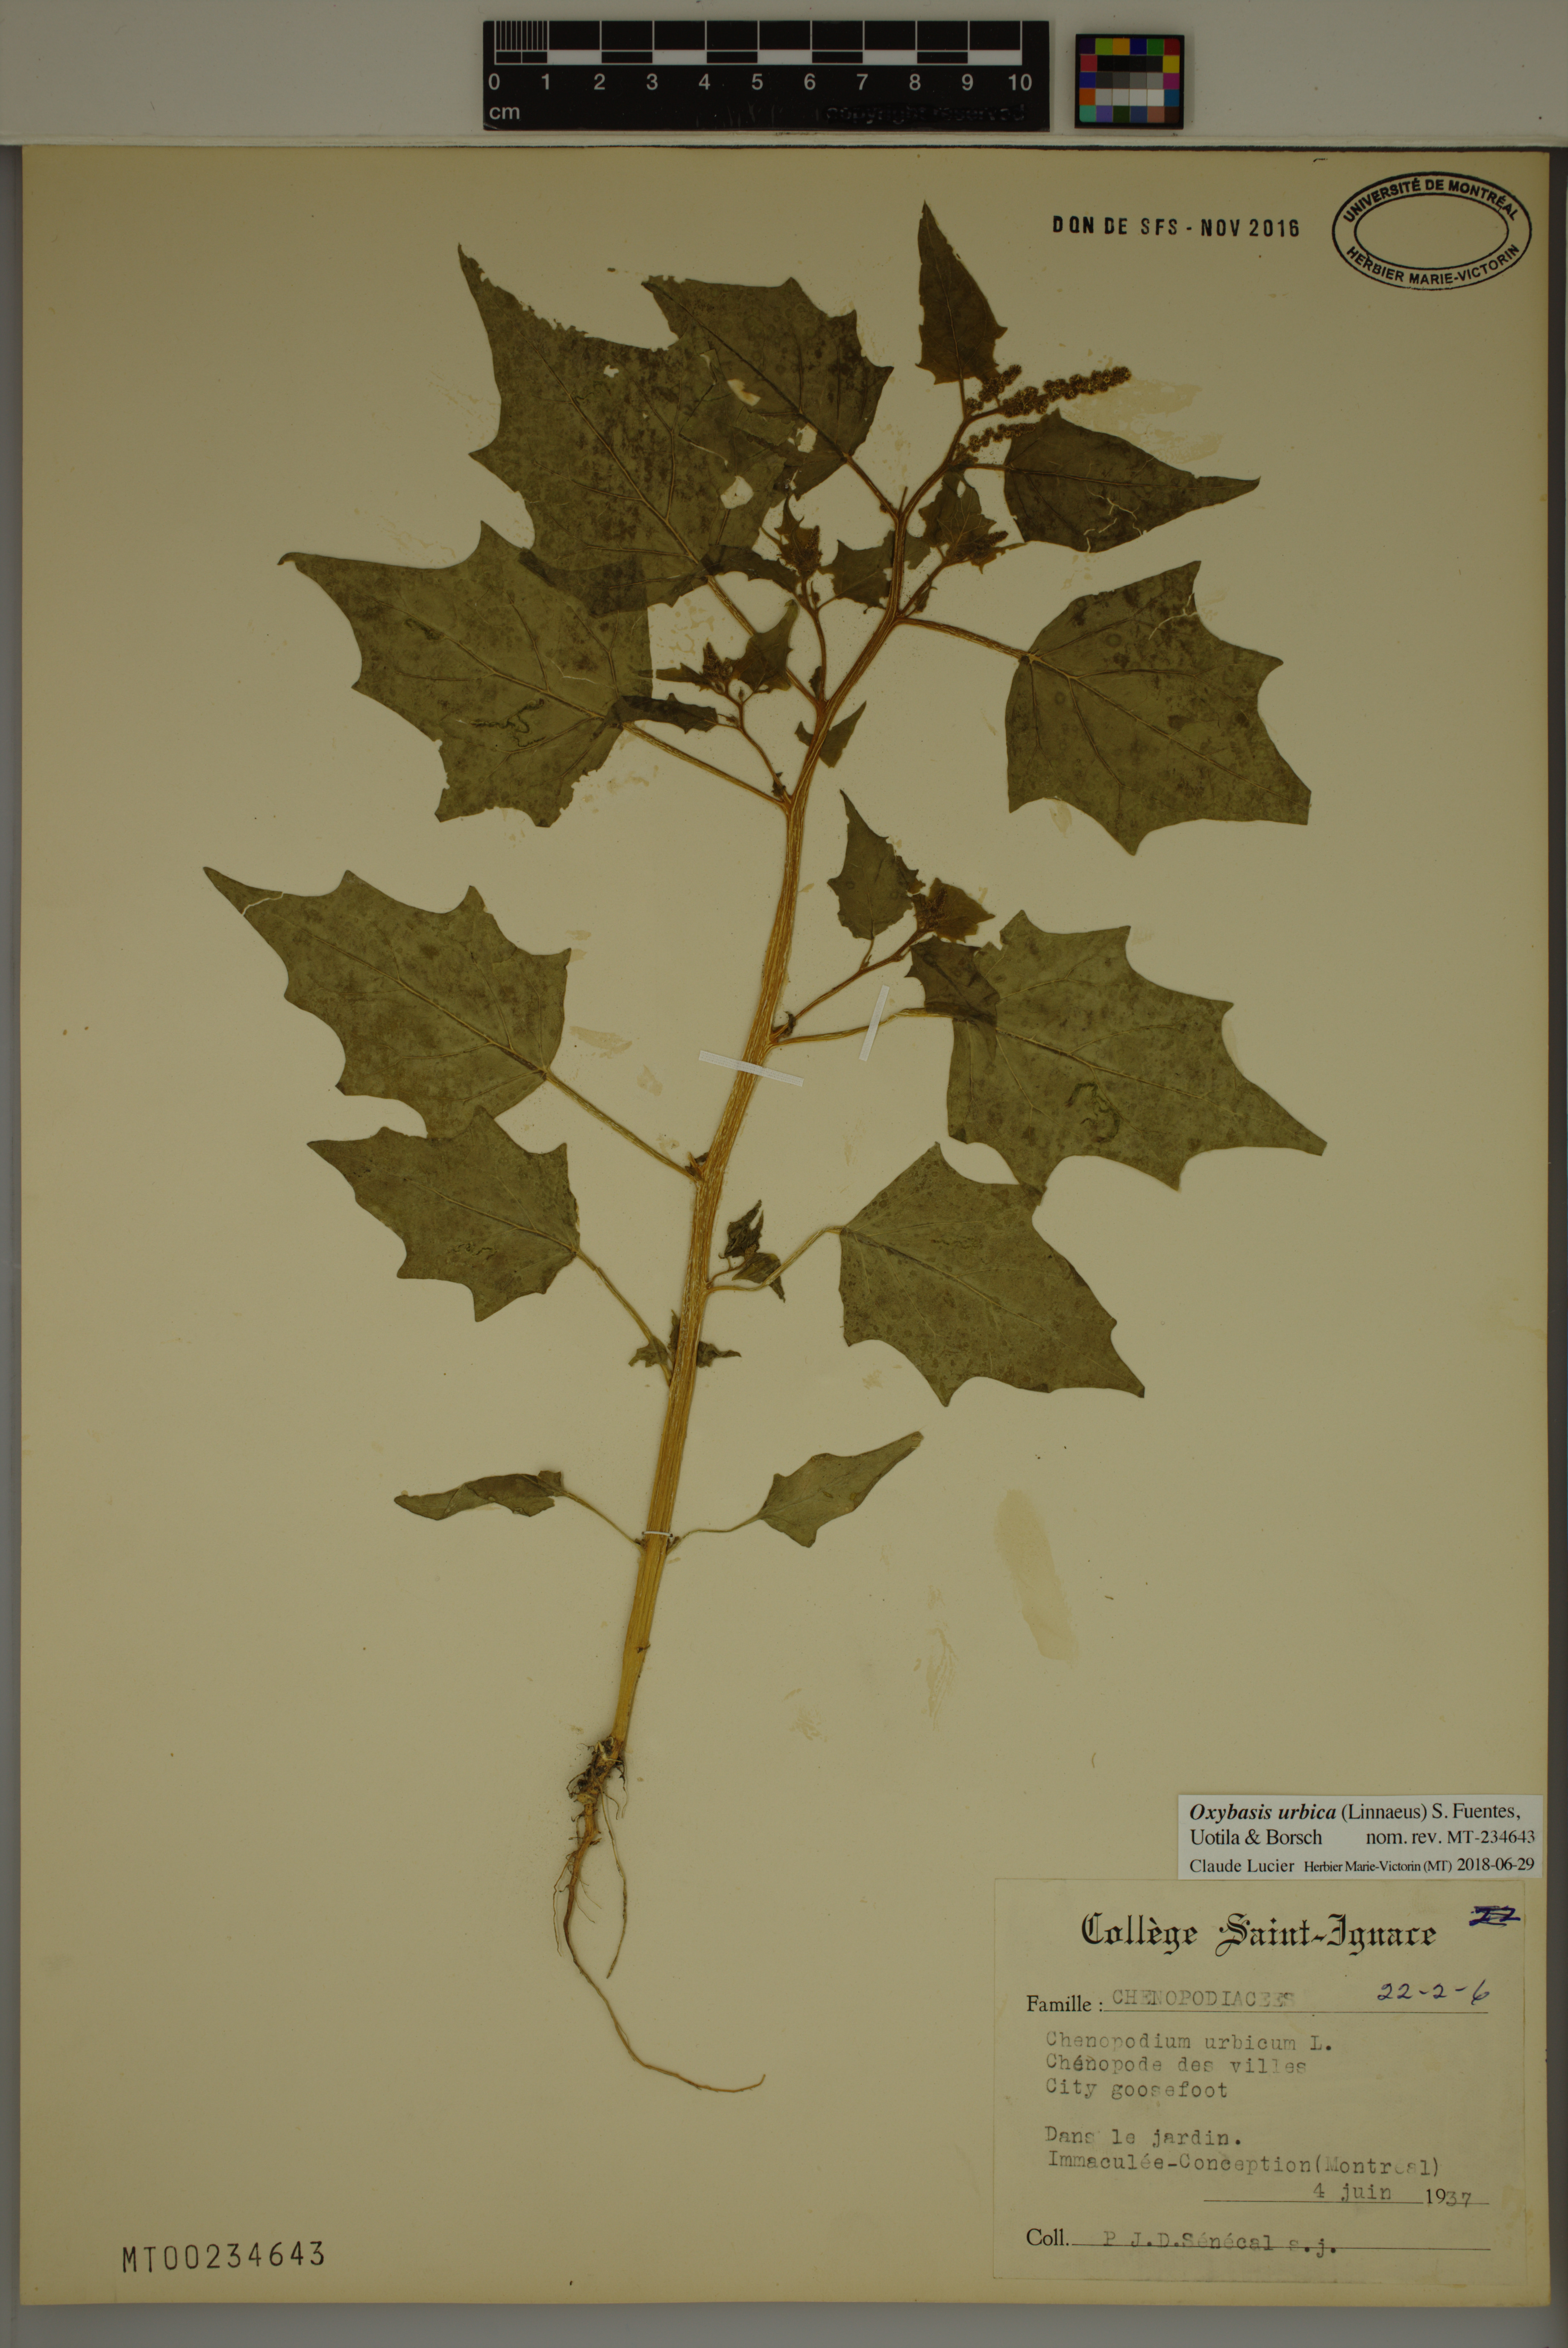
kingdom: Plantae
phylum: Tracheophyta
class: Magnoliopsida
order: Caryophyllales
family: Amaranthaceae
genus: Oxybasis
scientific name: Oxybasis urbica
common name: City goosefoot
